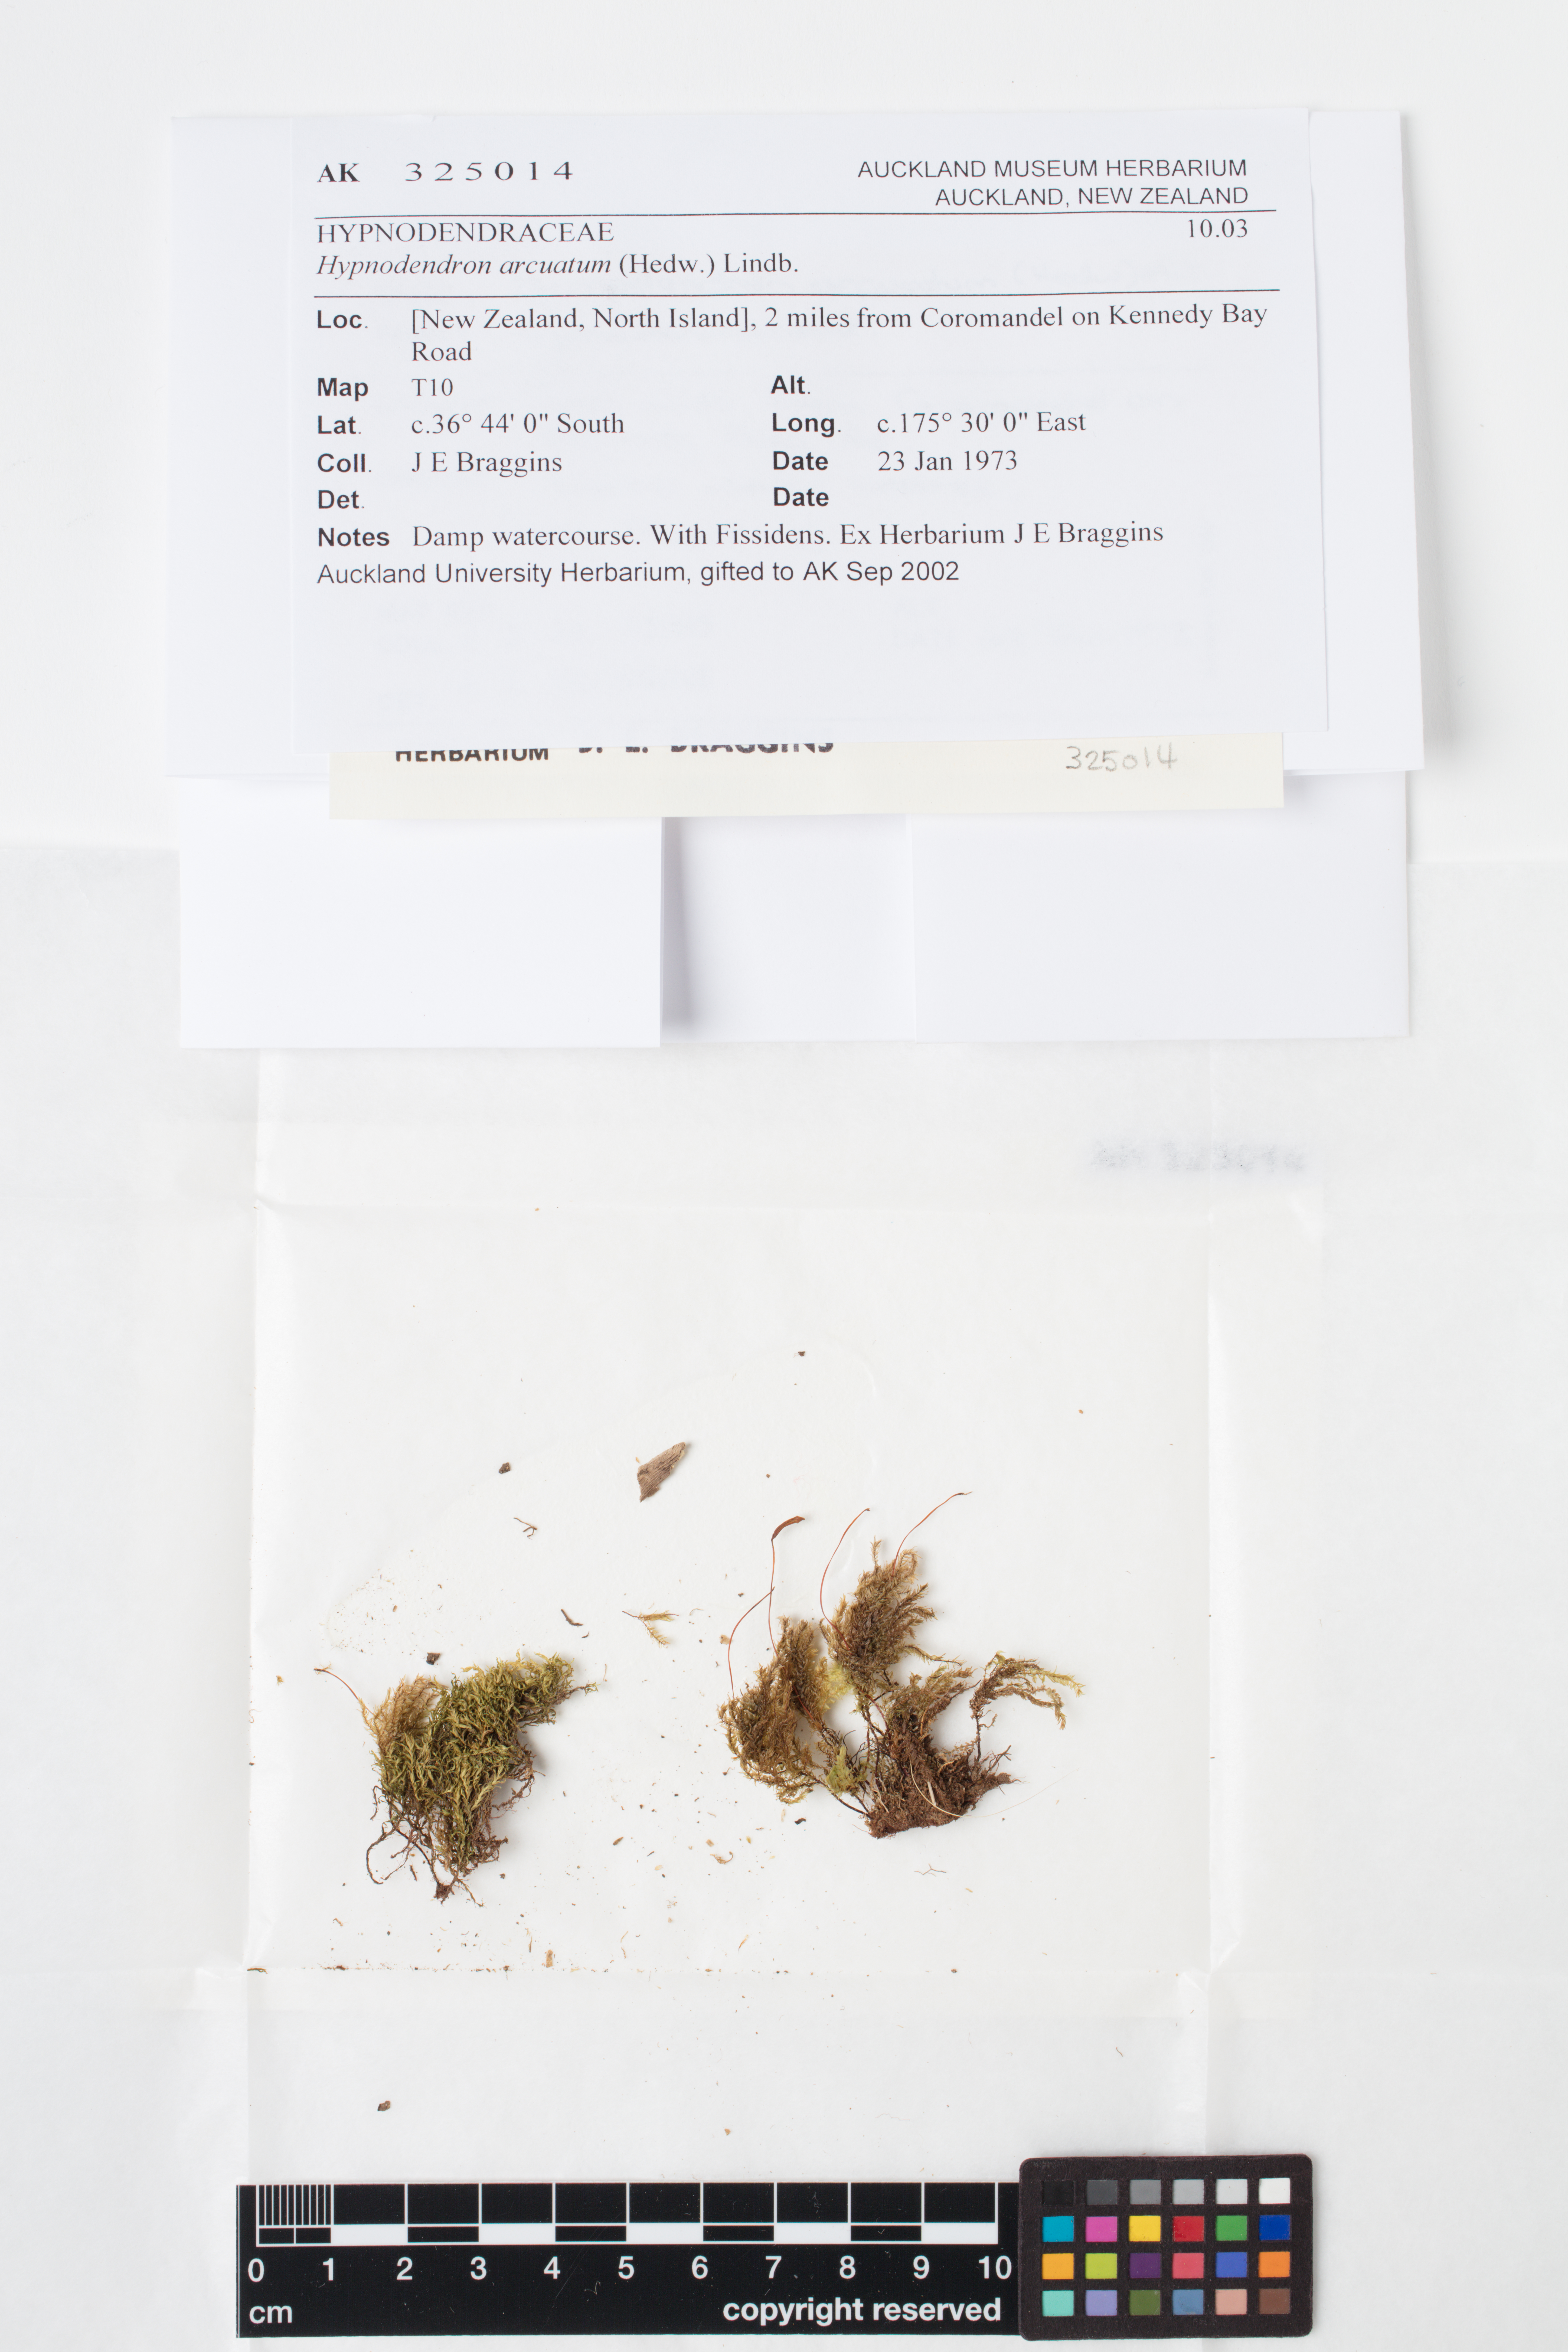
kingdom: Plantae
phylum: Bryophyta
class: Bryopsida
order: Hypnodendrales
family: Spiridentaceae
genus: Hypnodendron
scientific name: Hypnodendron arcuatum
